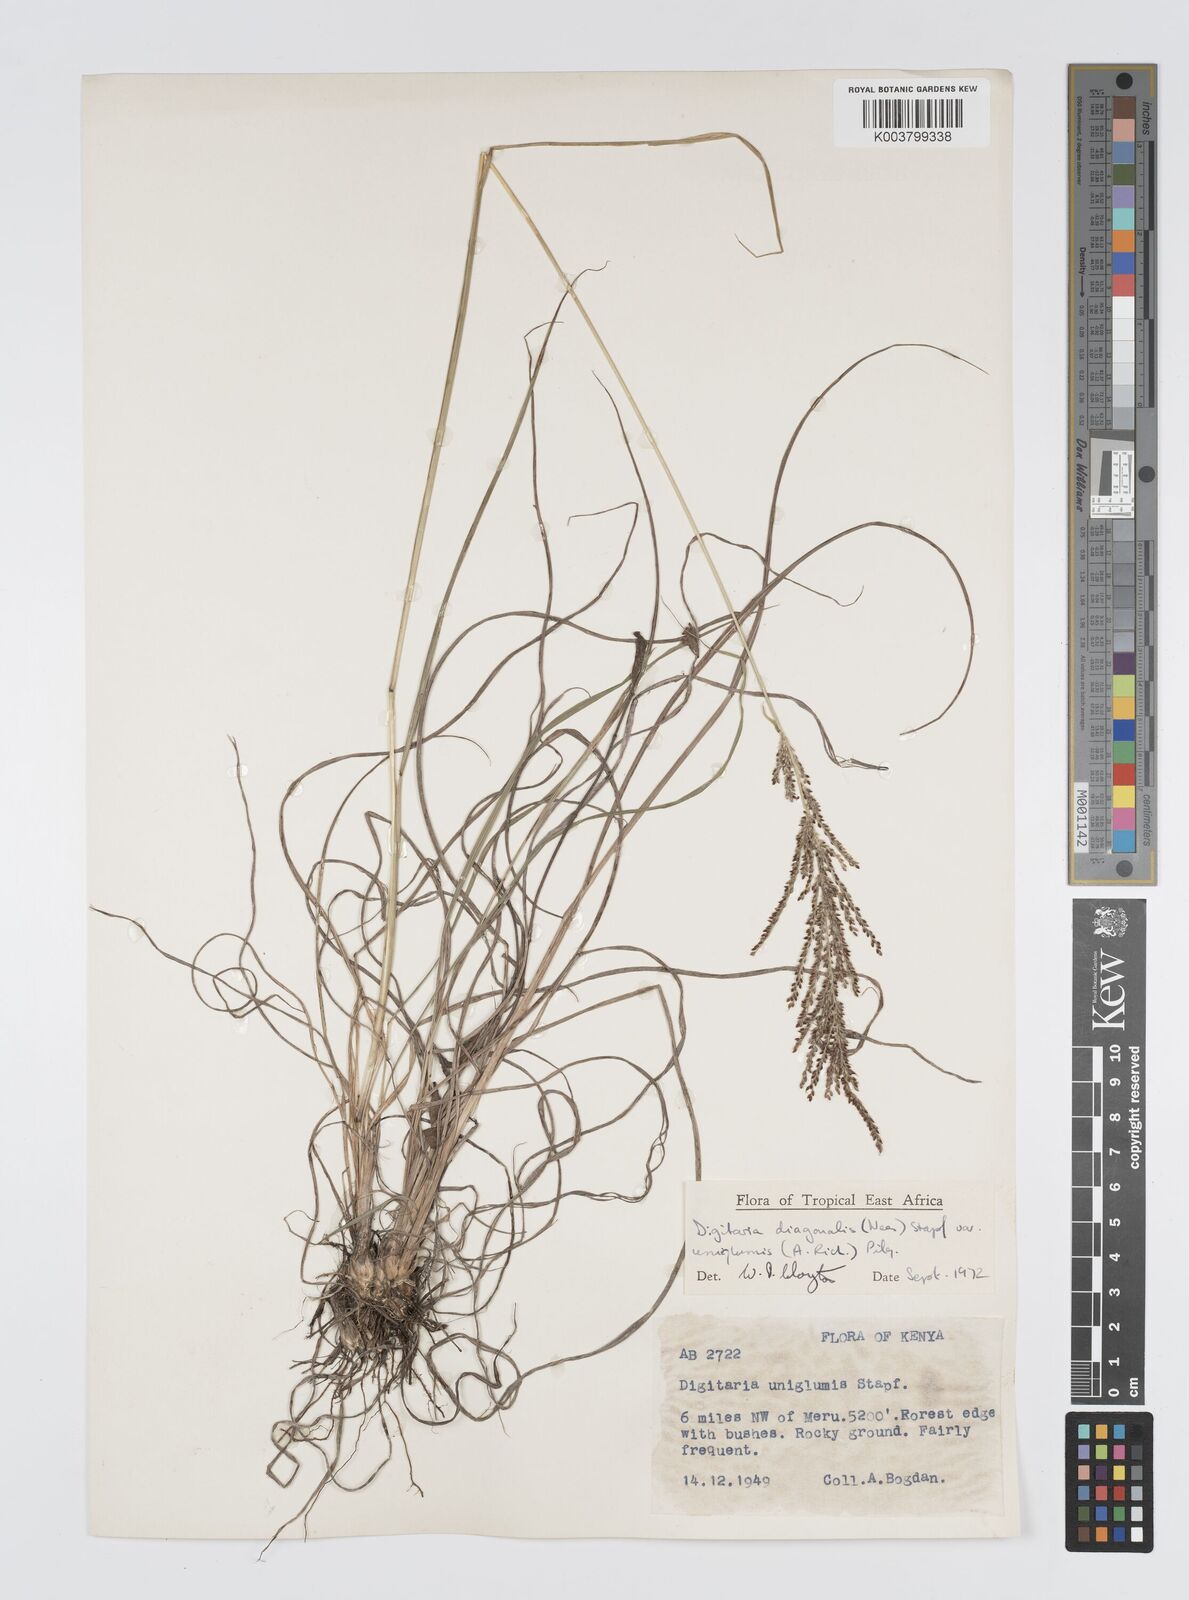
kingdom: Plantae
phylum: Tracheophyta
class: Liliopsida
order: Poales
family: Poaceae
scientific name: Poaceae
